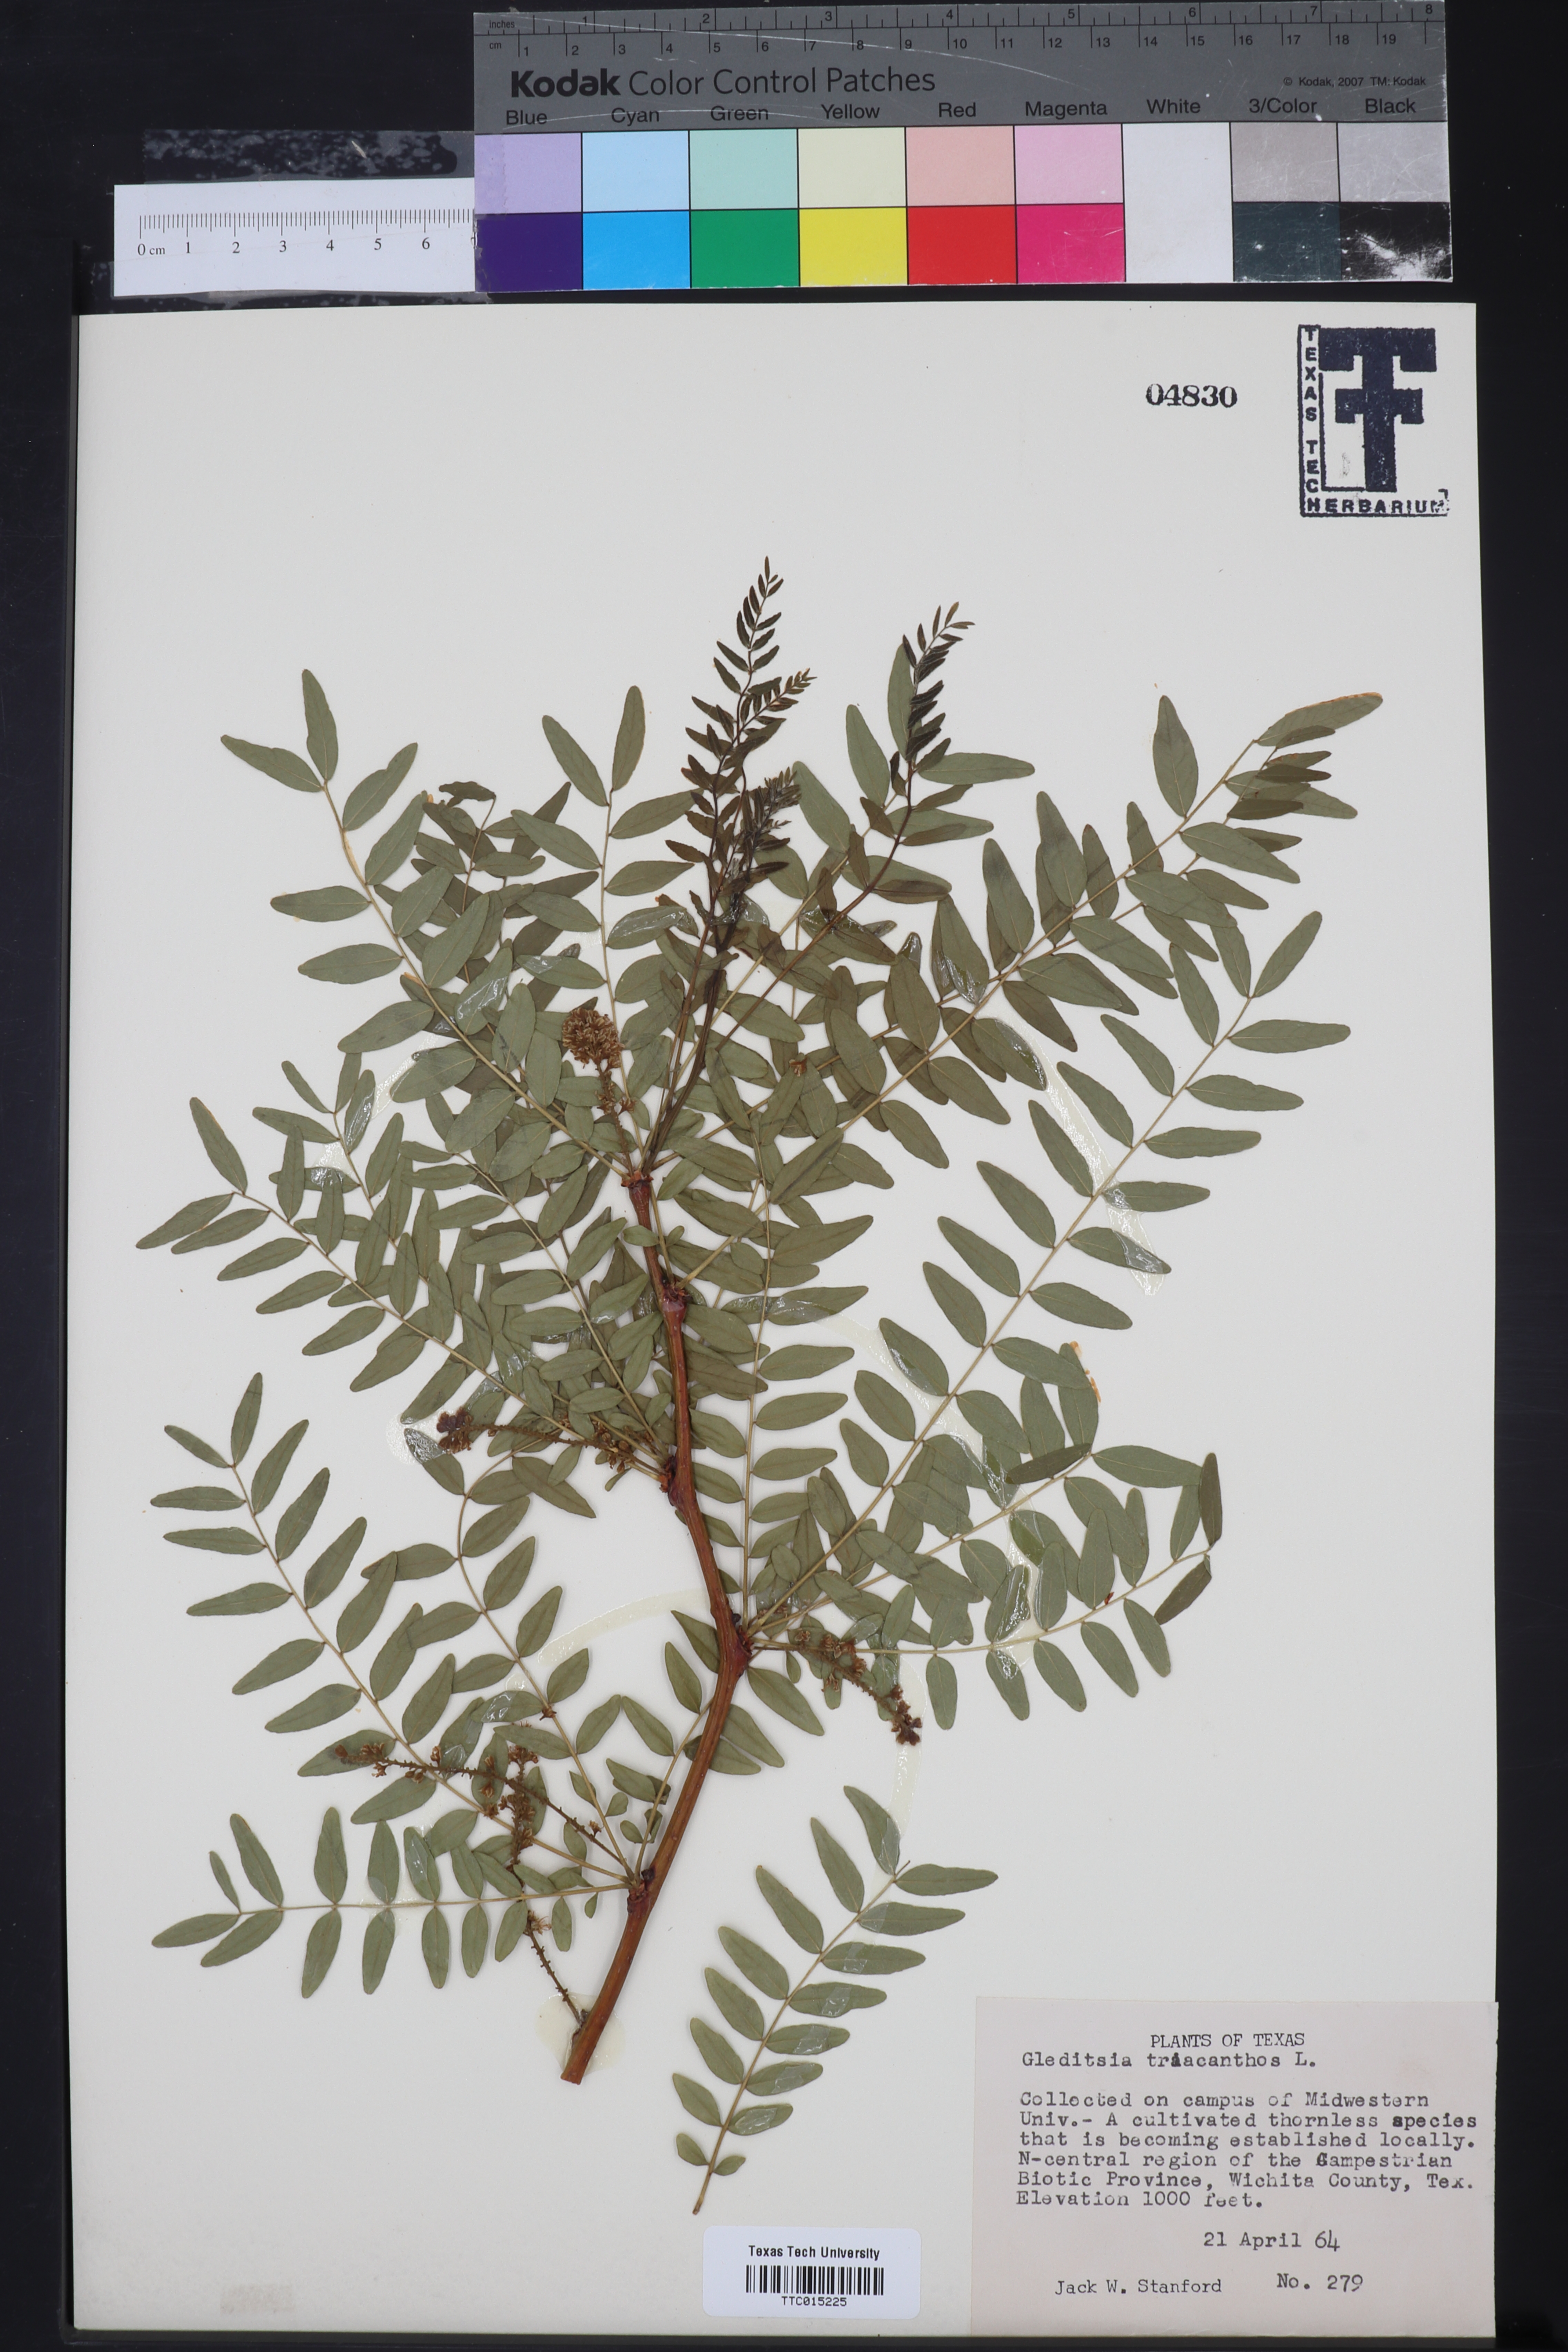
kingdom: Plantae
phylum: Tracheophyta
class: Magnoliopsida
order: Fabales
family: Fabaceae
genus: Gleditsia
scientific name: Gleditsia triacanthos
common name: Common honeylocust
